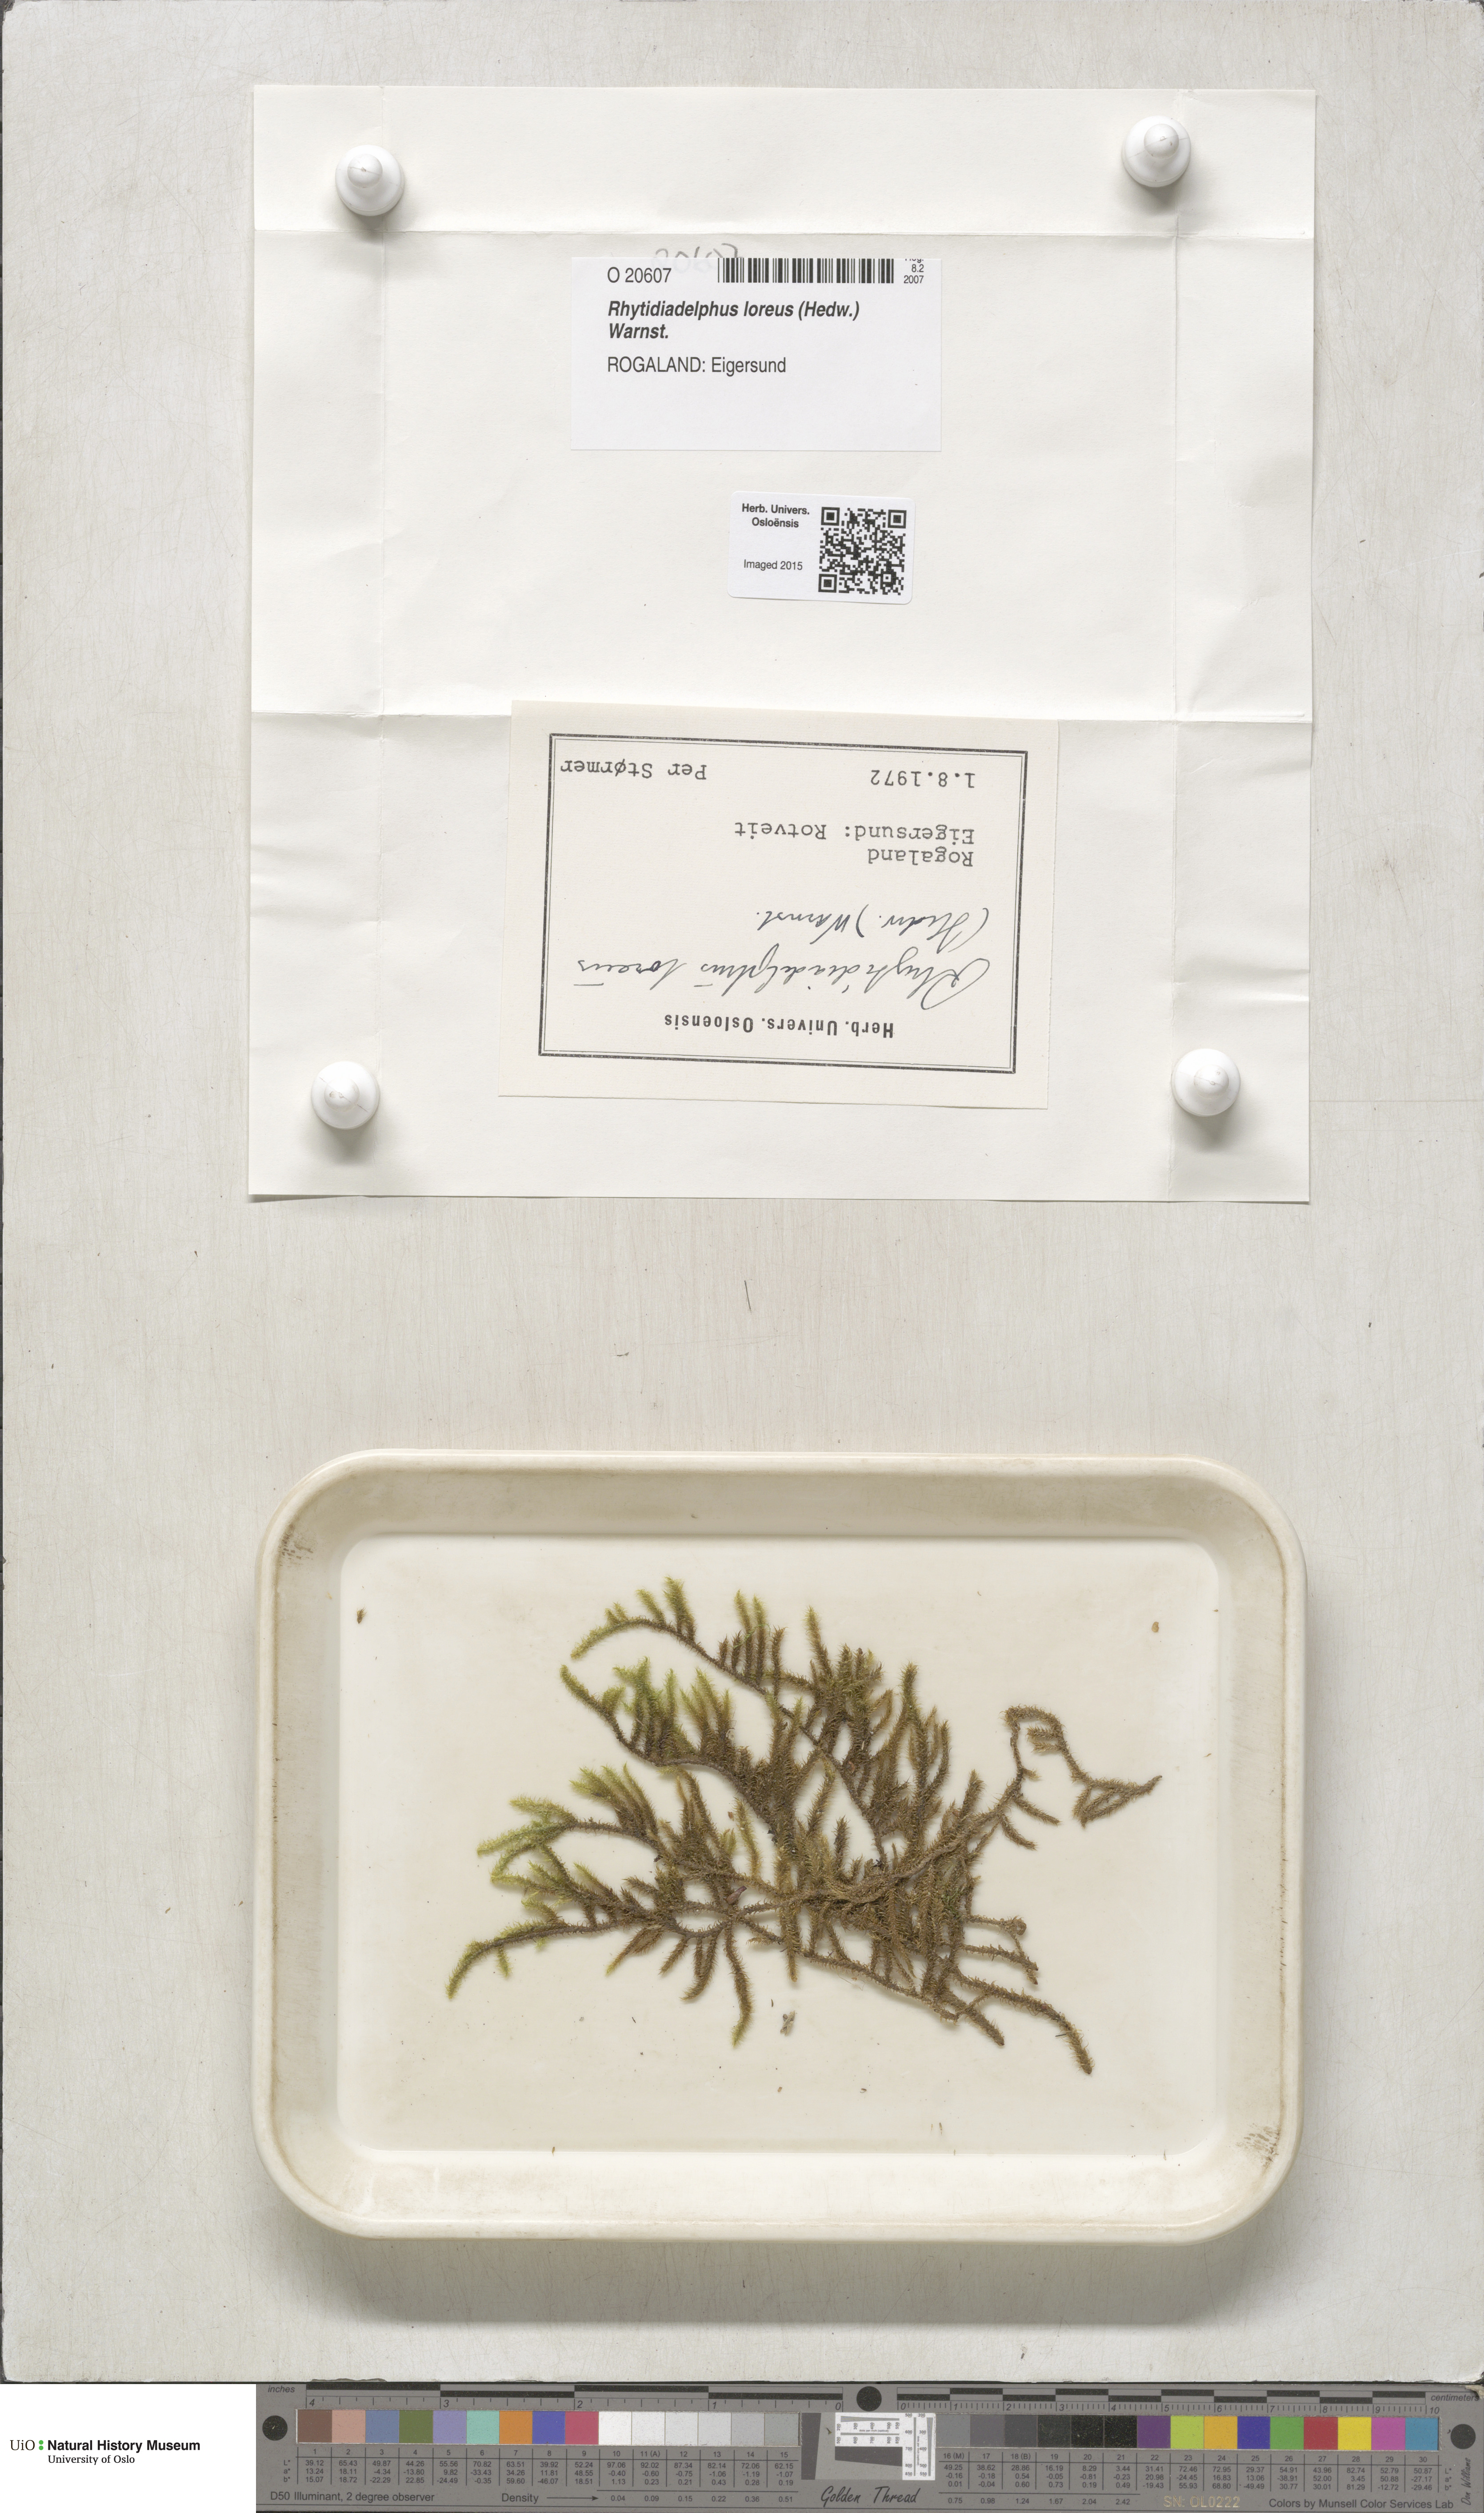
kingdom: Plantae
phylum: Bryophyta
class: Bryopsida
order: Hypnales
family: Hylocomiaceae
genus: Rhytidiadelphus
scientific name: Rhytidiadelphus loreus
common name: Lanky moss
